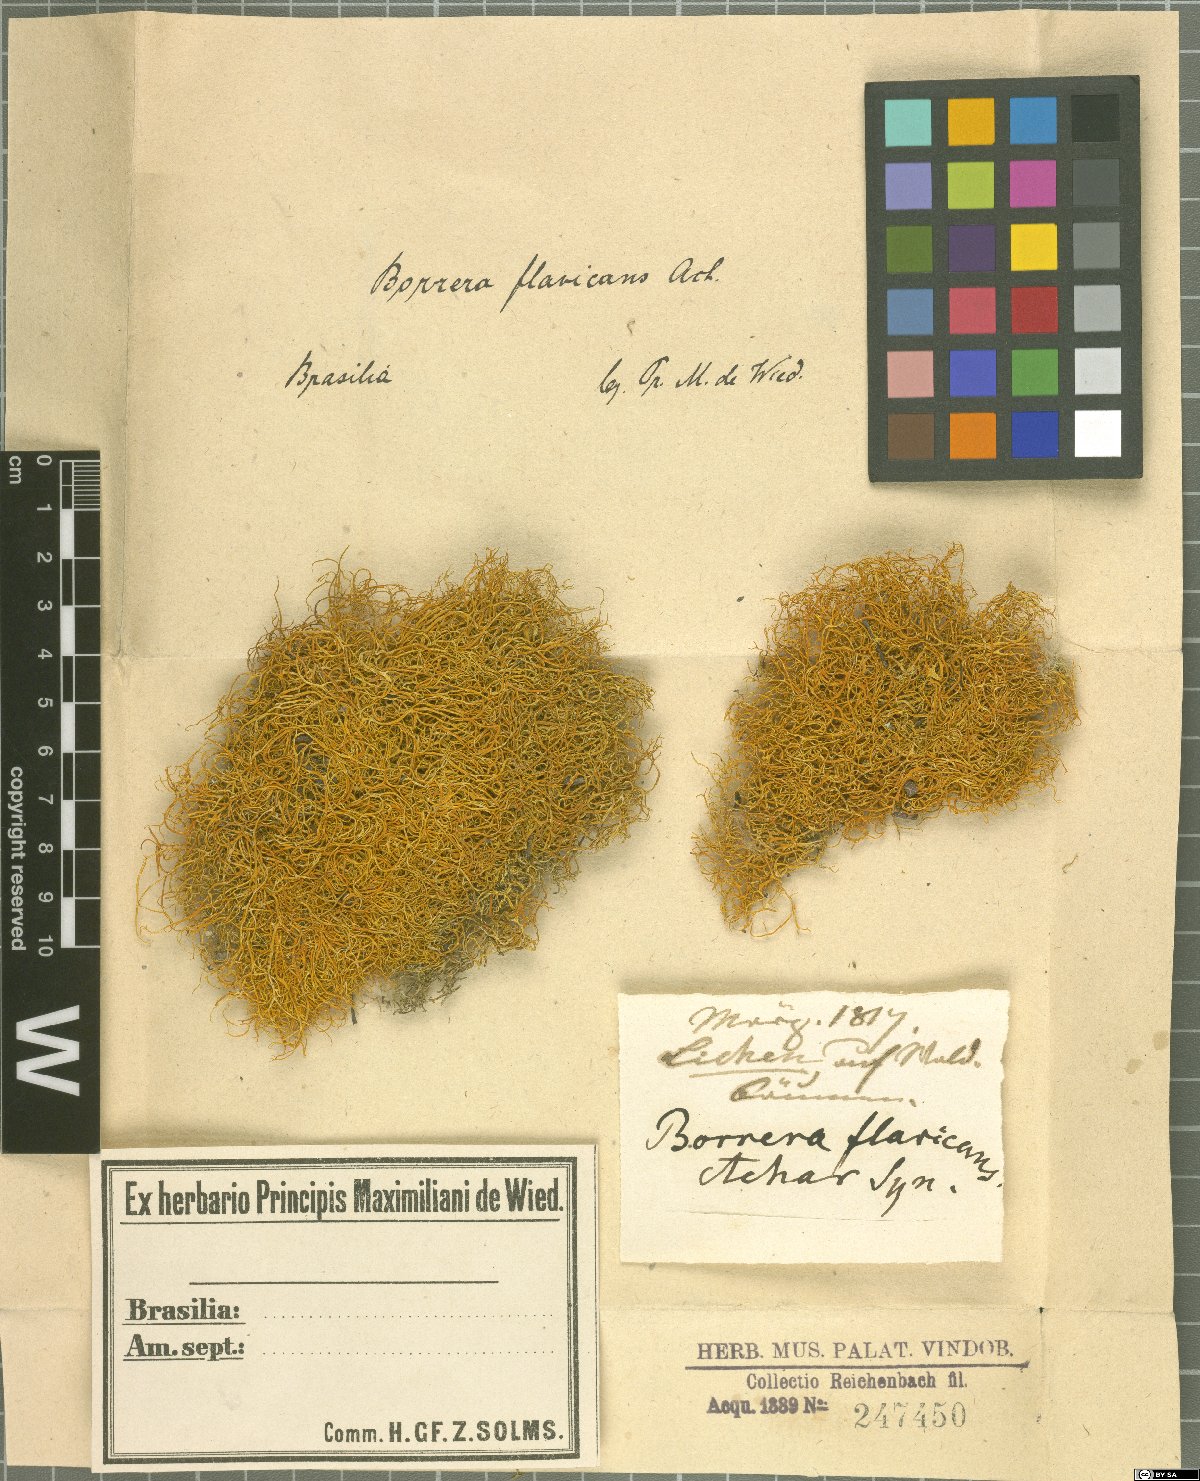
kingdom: Fungi
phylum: Ascomycota
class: Lecanoromycetes
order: Teloschistales
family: Teloschistaceae
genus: Teloschistes
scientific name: Teloschistes flavicans
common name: Golden hair-lichen
